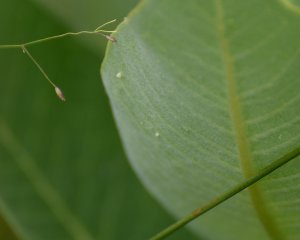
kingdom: Animalia
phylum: Arthropoda
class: Insecta
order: Lepidoptera
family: Nymphalidae
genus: Danaus
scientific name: Danaus plexippus
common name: Monarch
